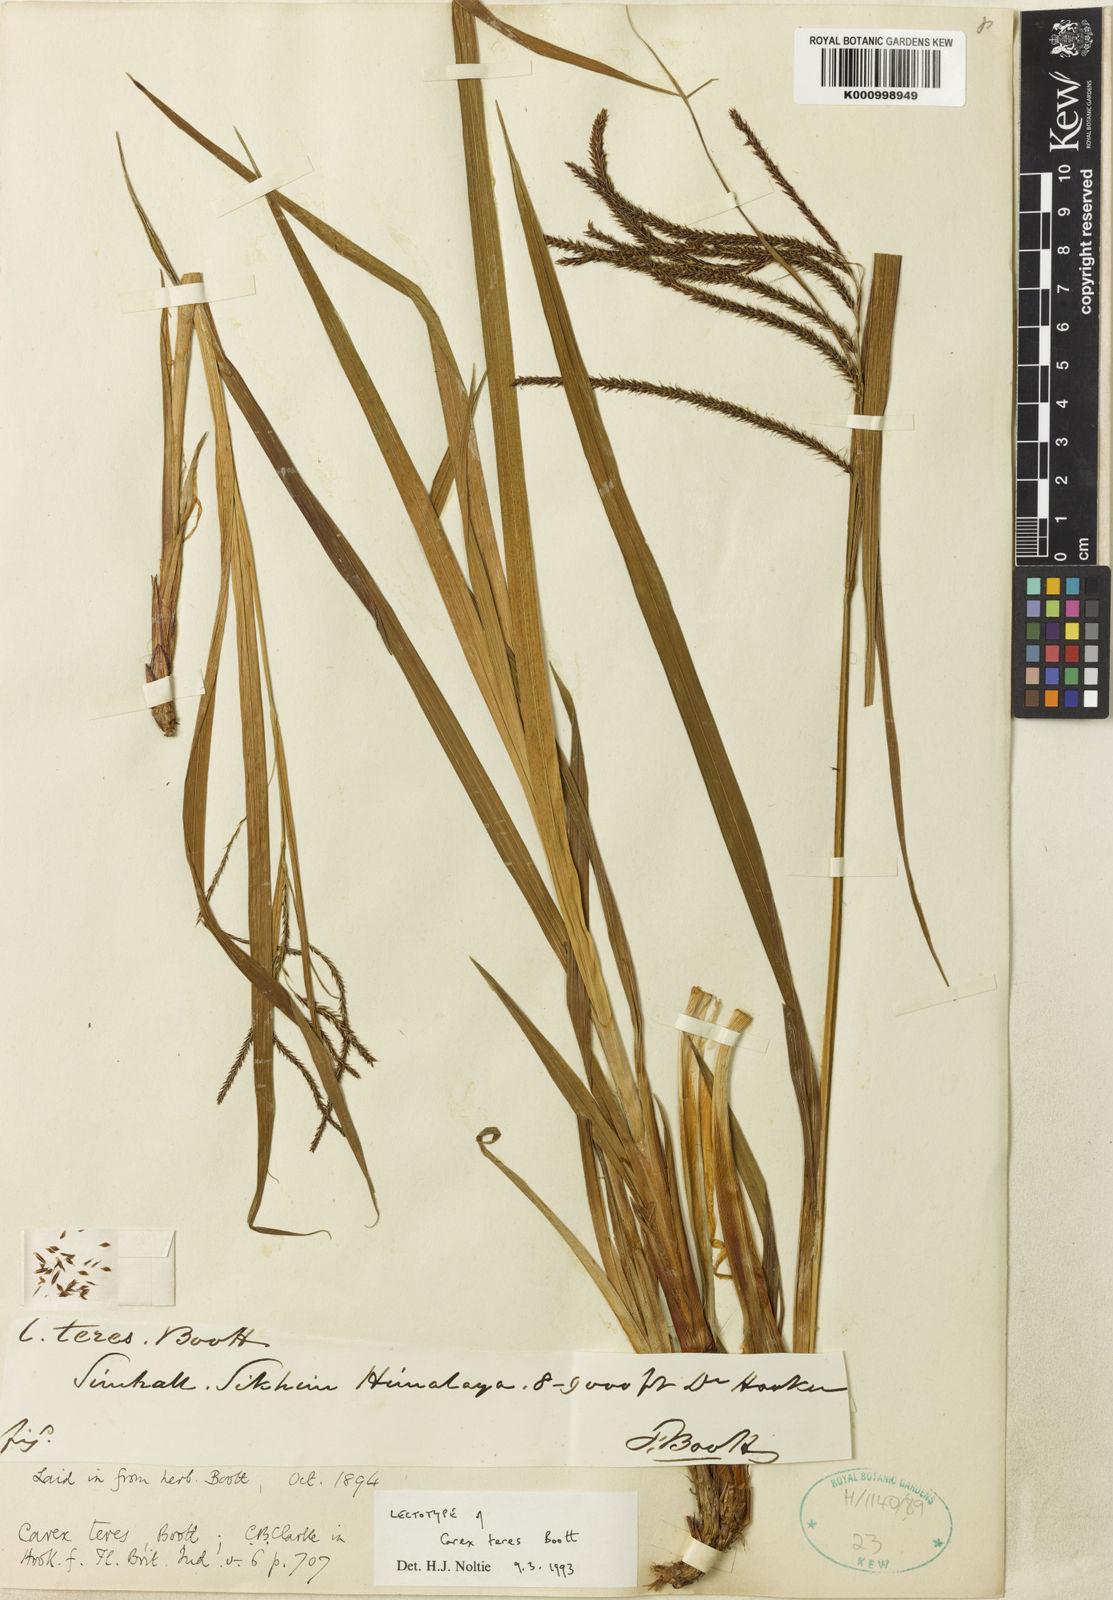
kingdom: Plantae
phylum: Tracheophyta
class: Liliopsida
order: Poales
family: Cyperaceae
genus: Carex
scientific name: Carex teres
